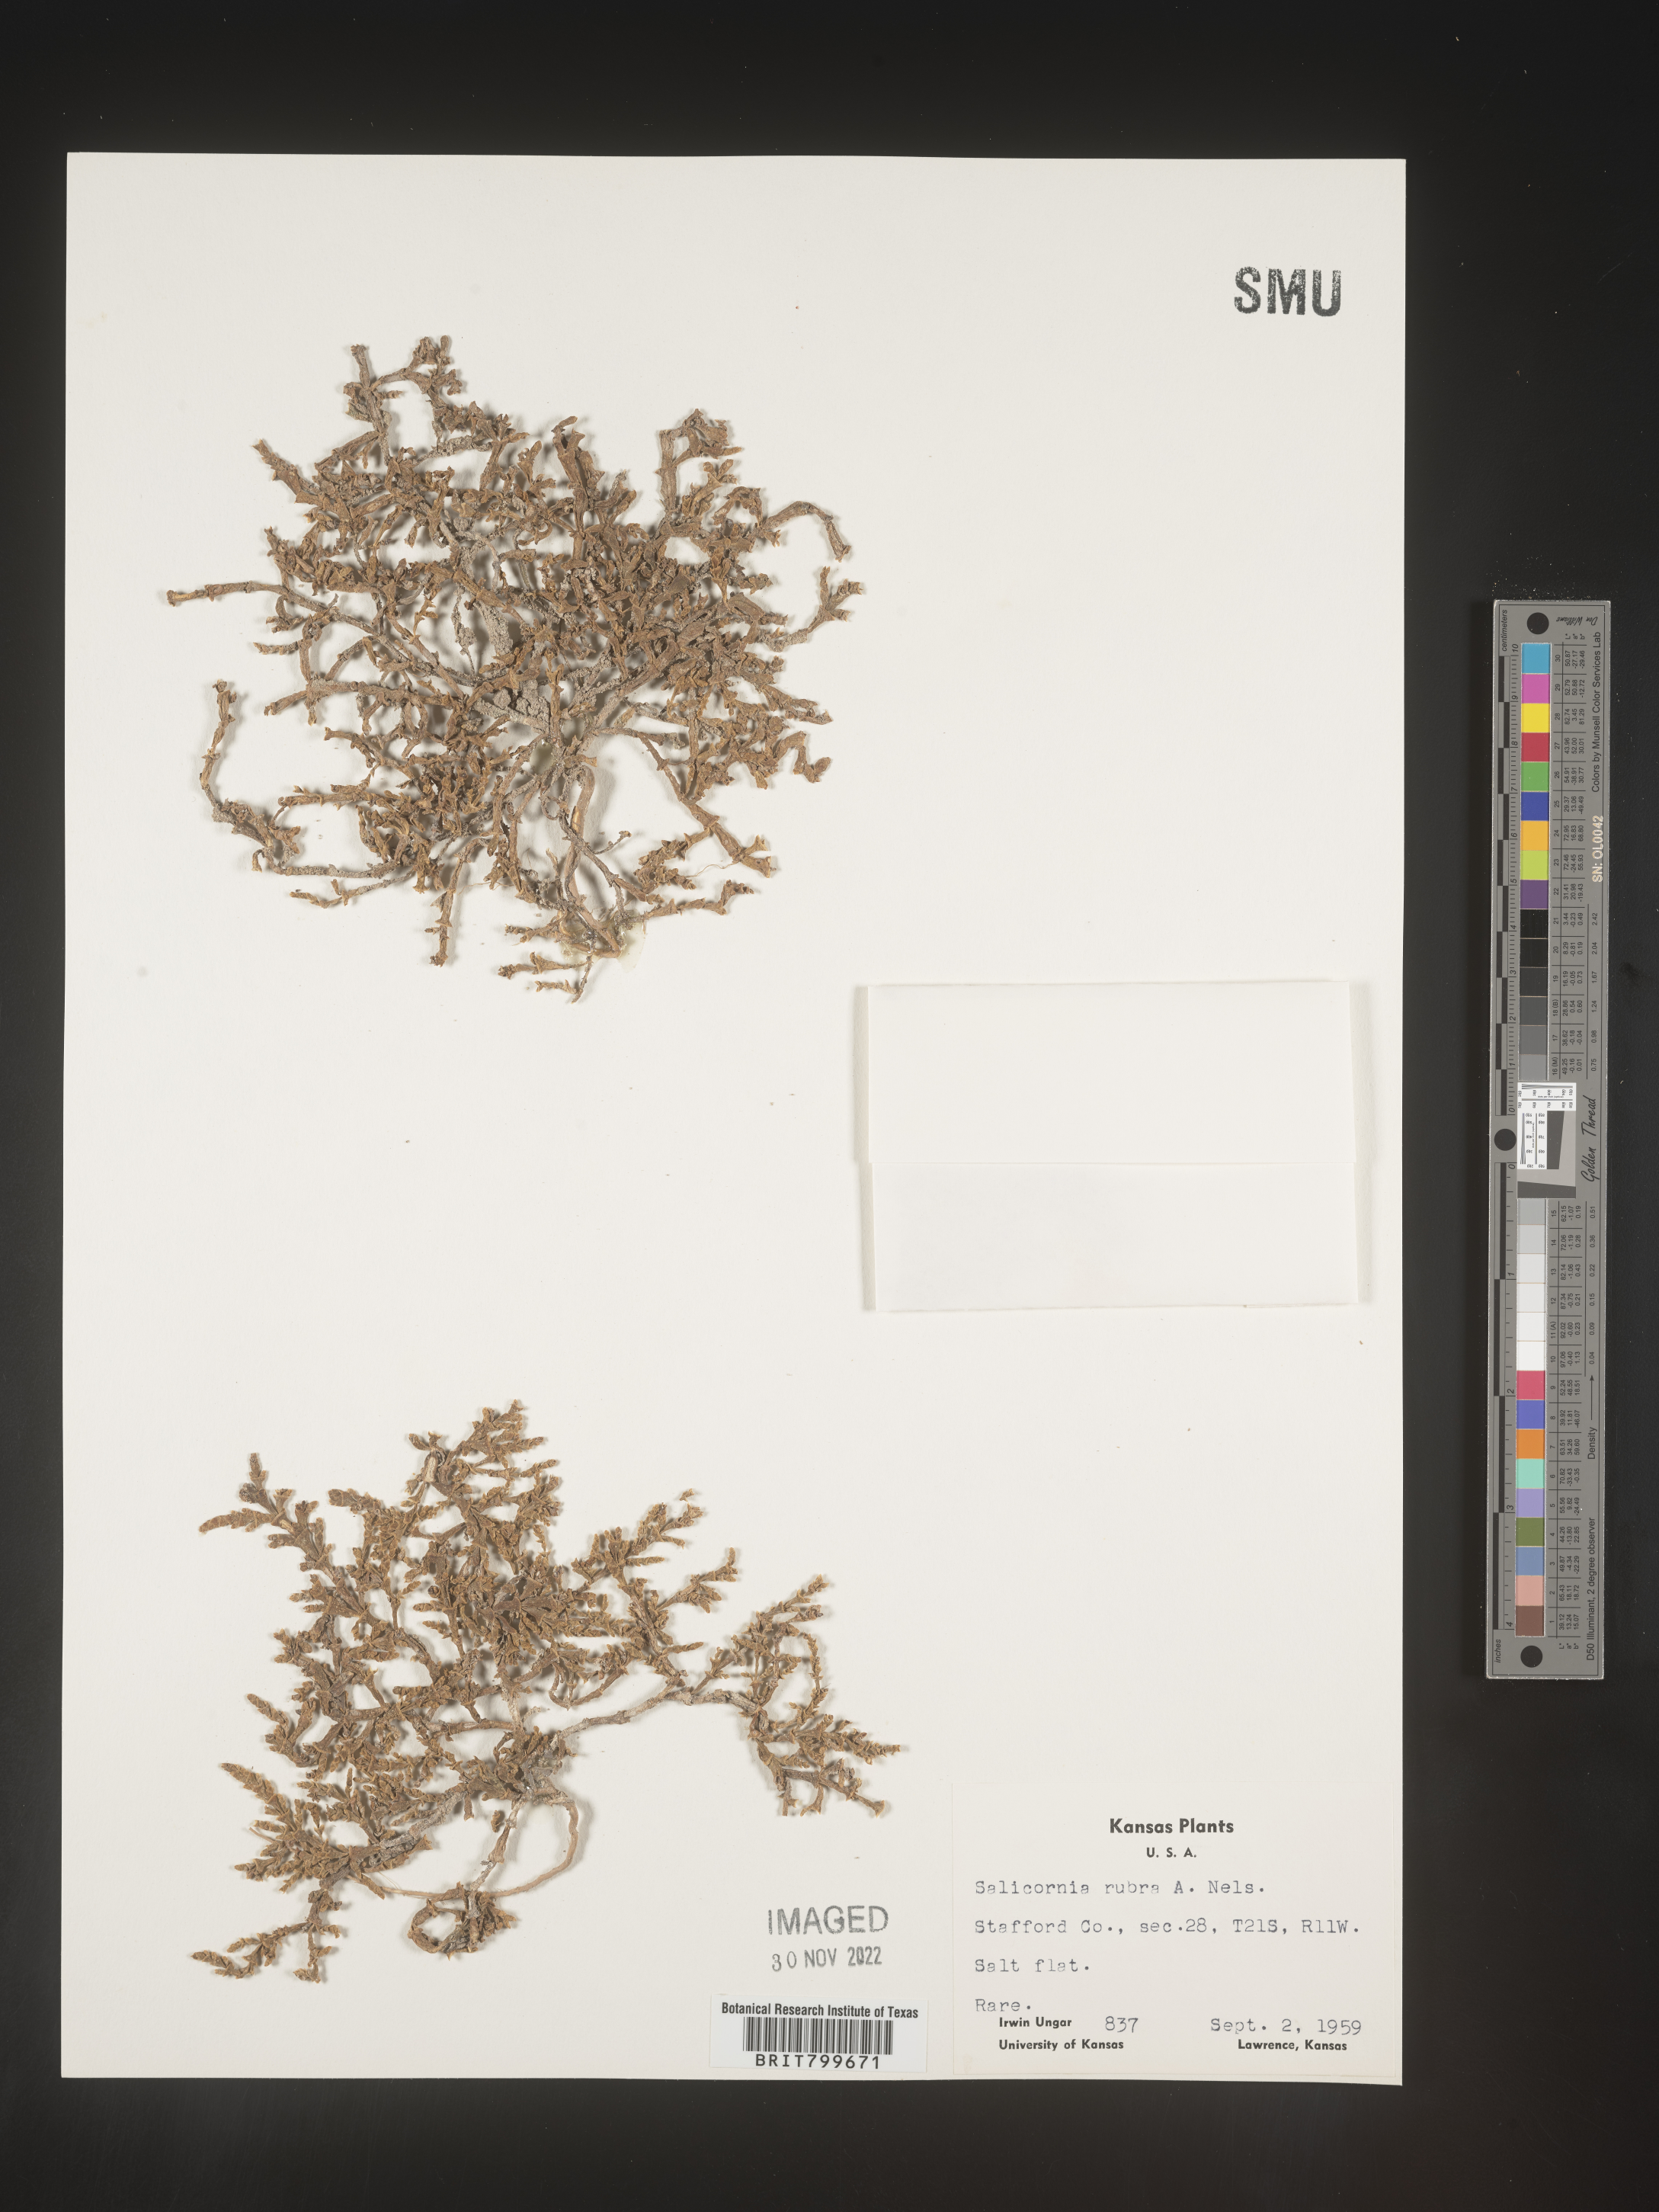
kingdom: Plantae
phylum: Tracheophyta
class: Magnoliopsida
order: Caryophyllales
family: Amaranthaceae
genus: Salicornia
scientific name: Salicornia
